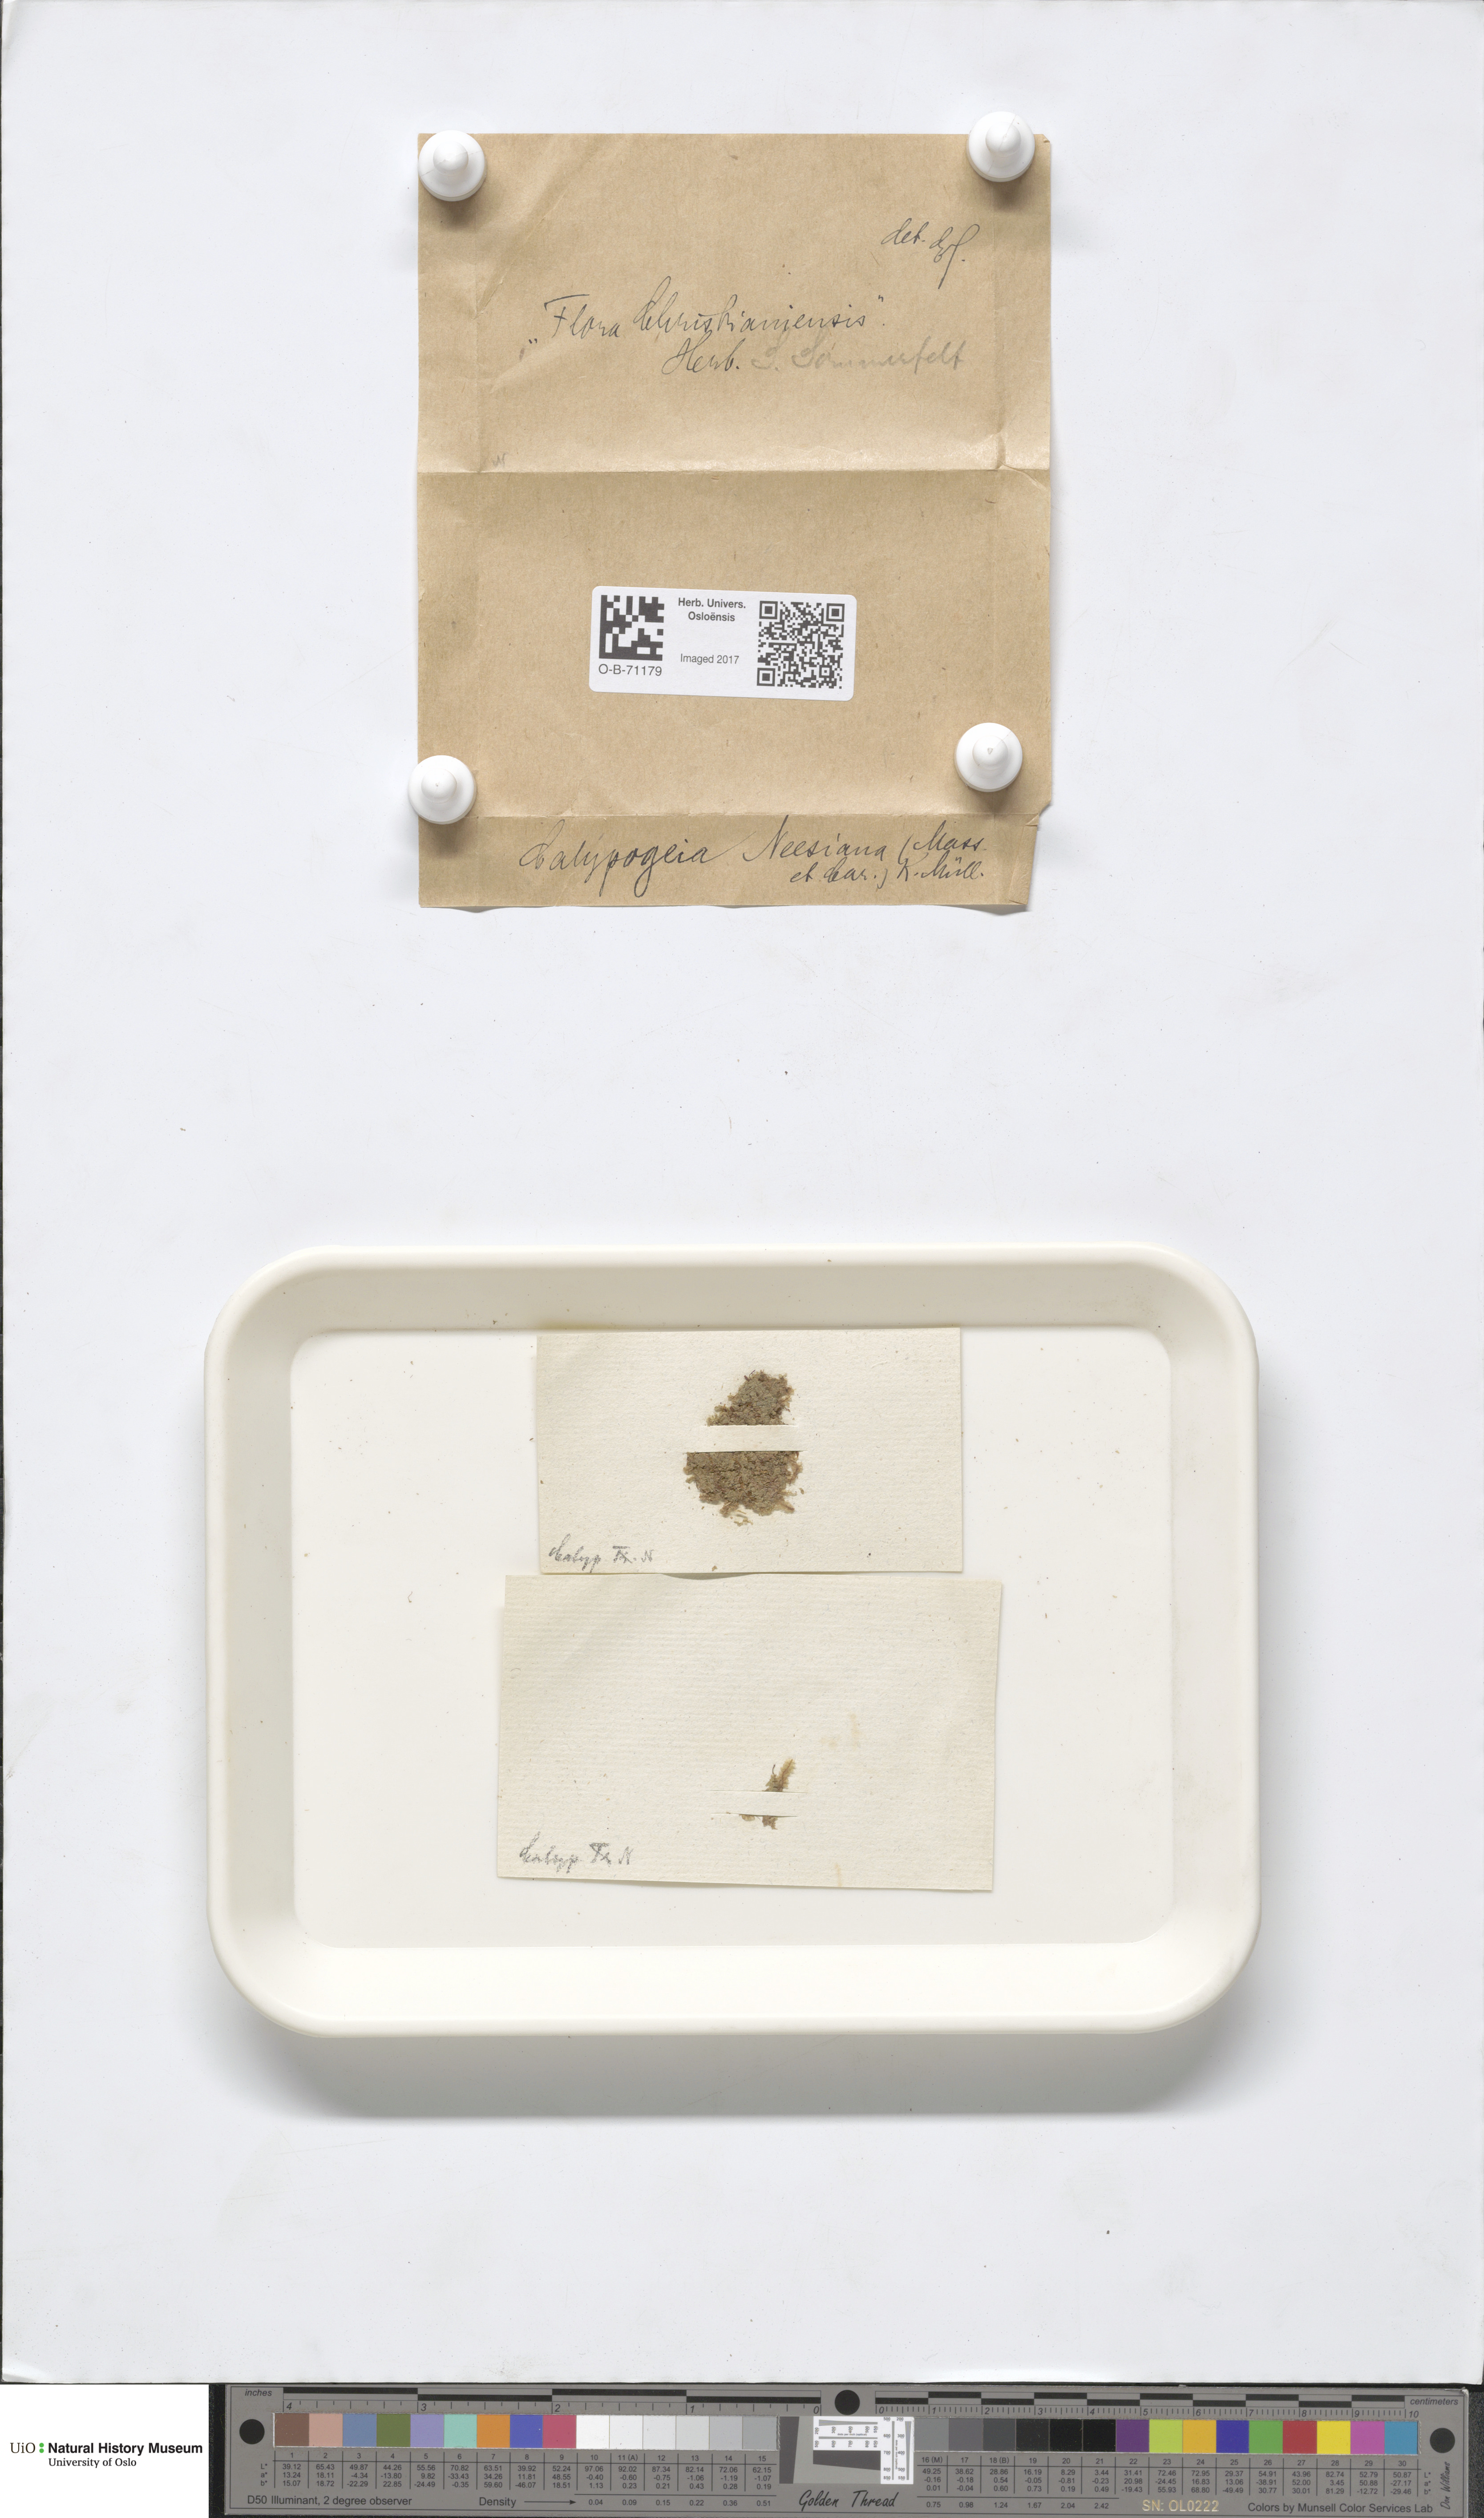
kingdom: Plantae
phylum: Marchantiophyta
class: Jungermanniopsida
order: Jungermanniales
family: Calypogeiaceae
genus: Calypogeia
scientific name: Calypogeia neesiana
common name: Nees  pouchwort
